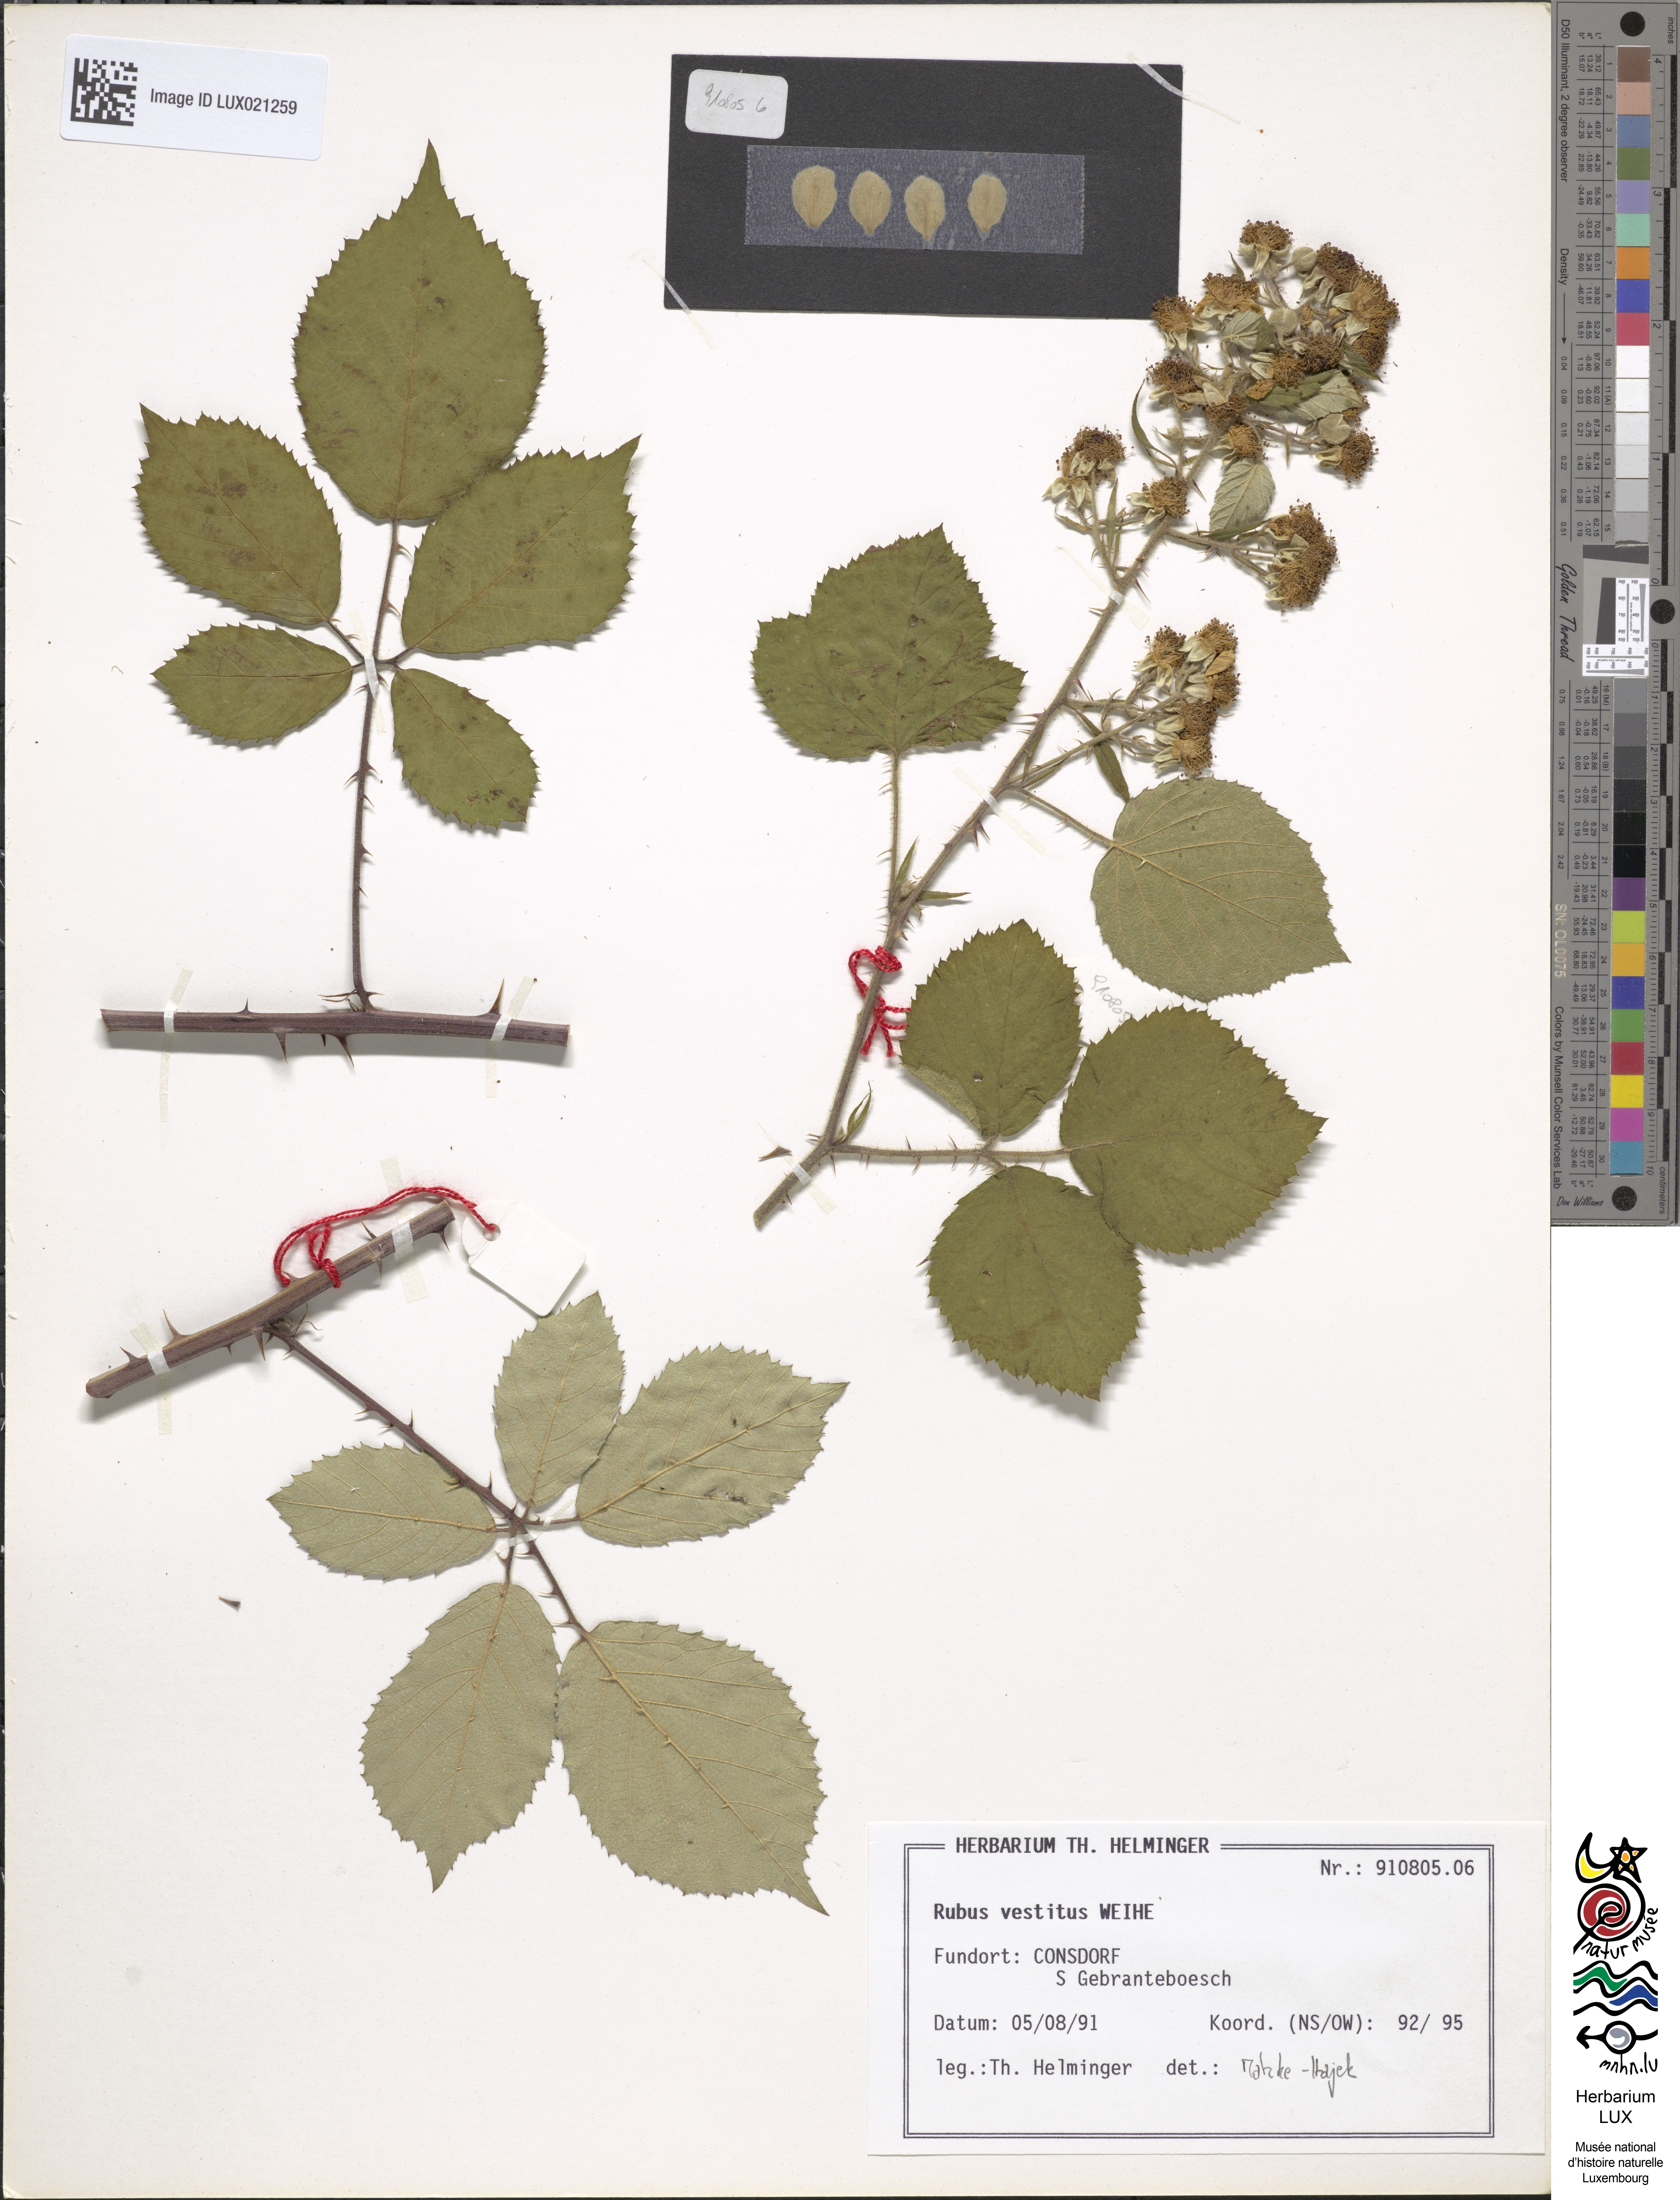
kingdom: Plantae
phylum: Tracheophyta
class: Magnoliopsida
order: Rosales
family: Rosaceae
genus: Rubus
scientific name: Rubus vestitus
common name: European blackberry
